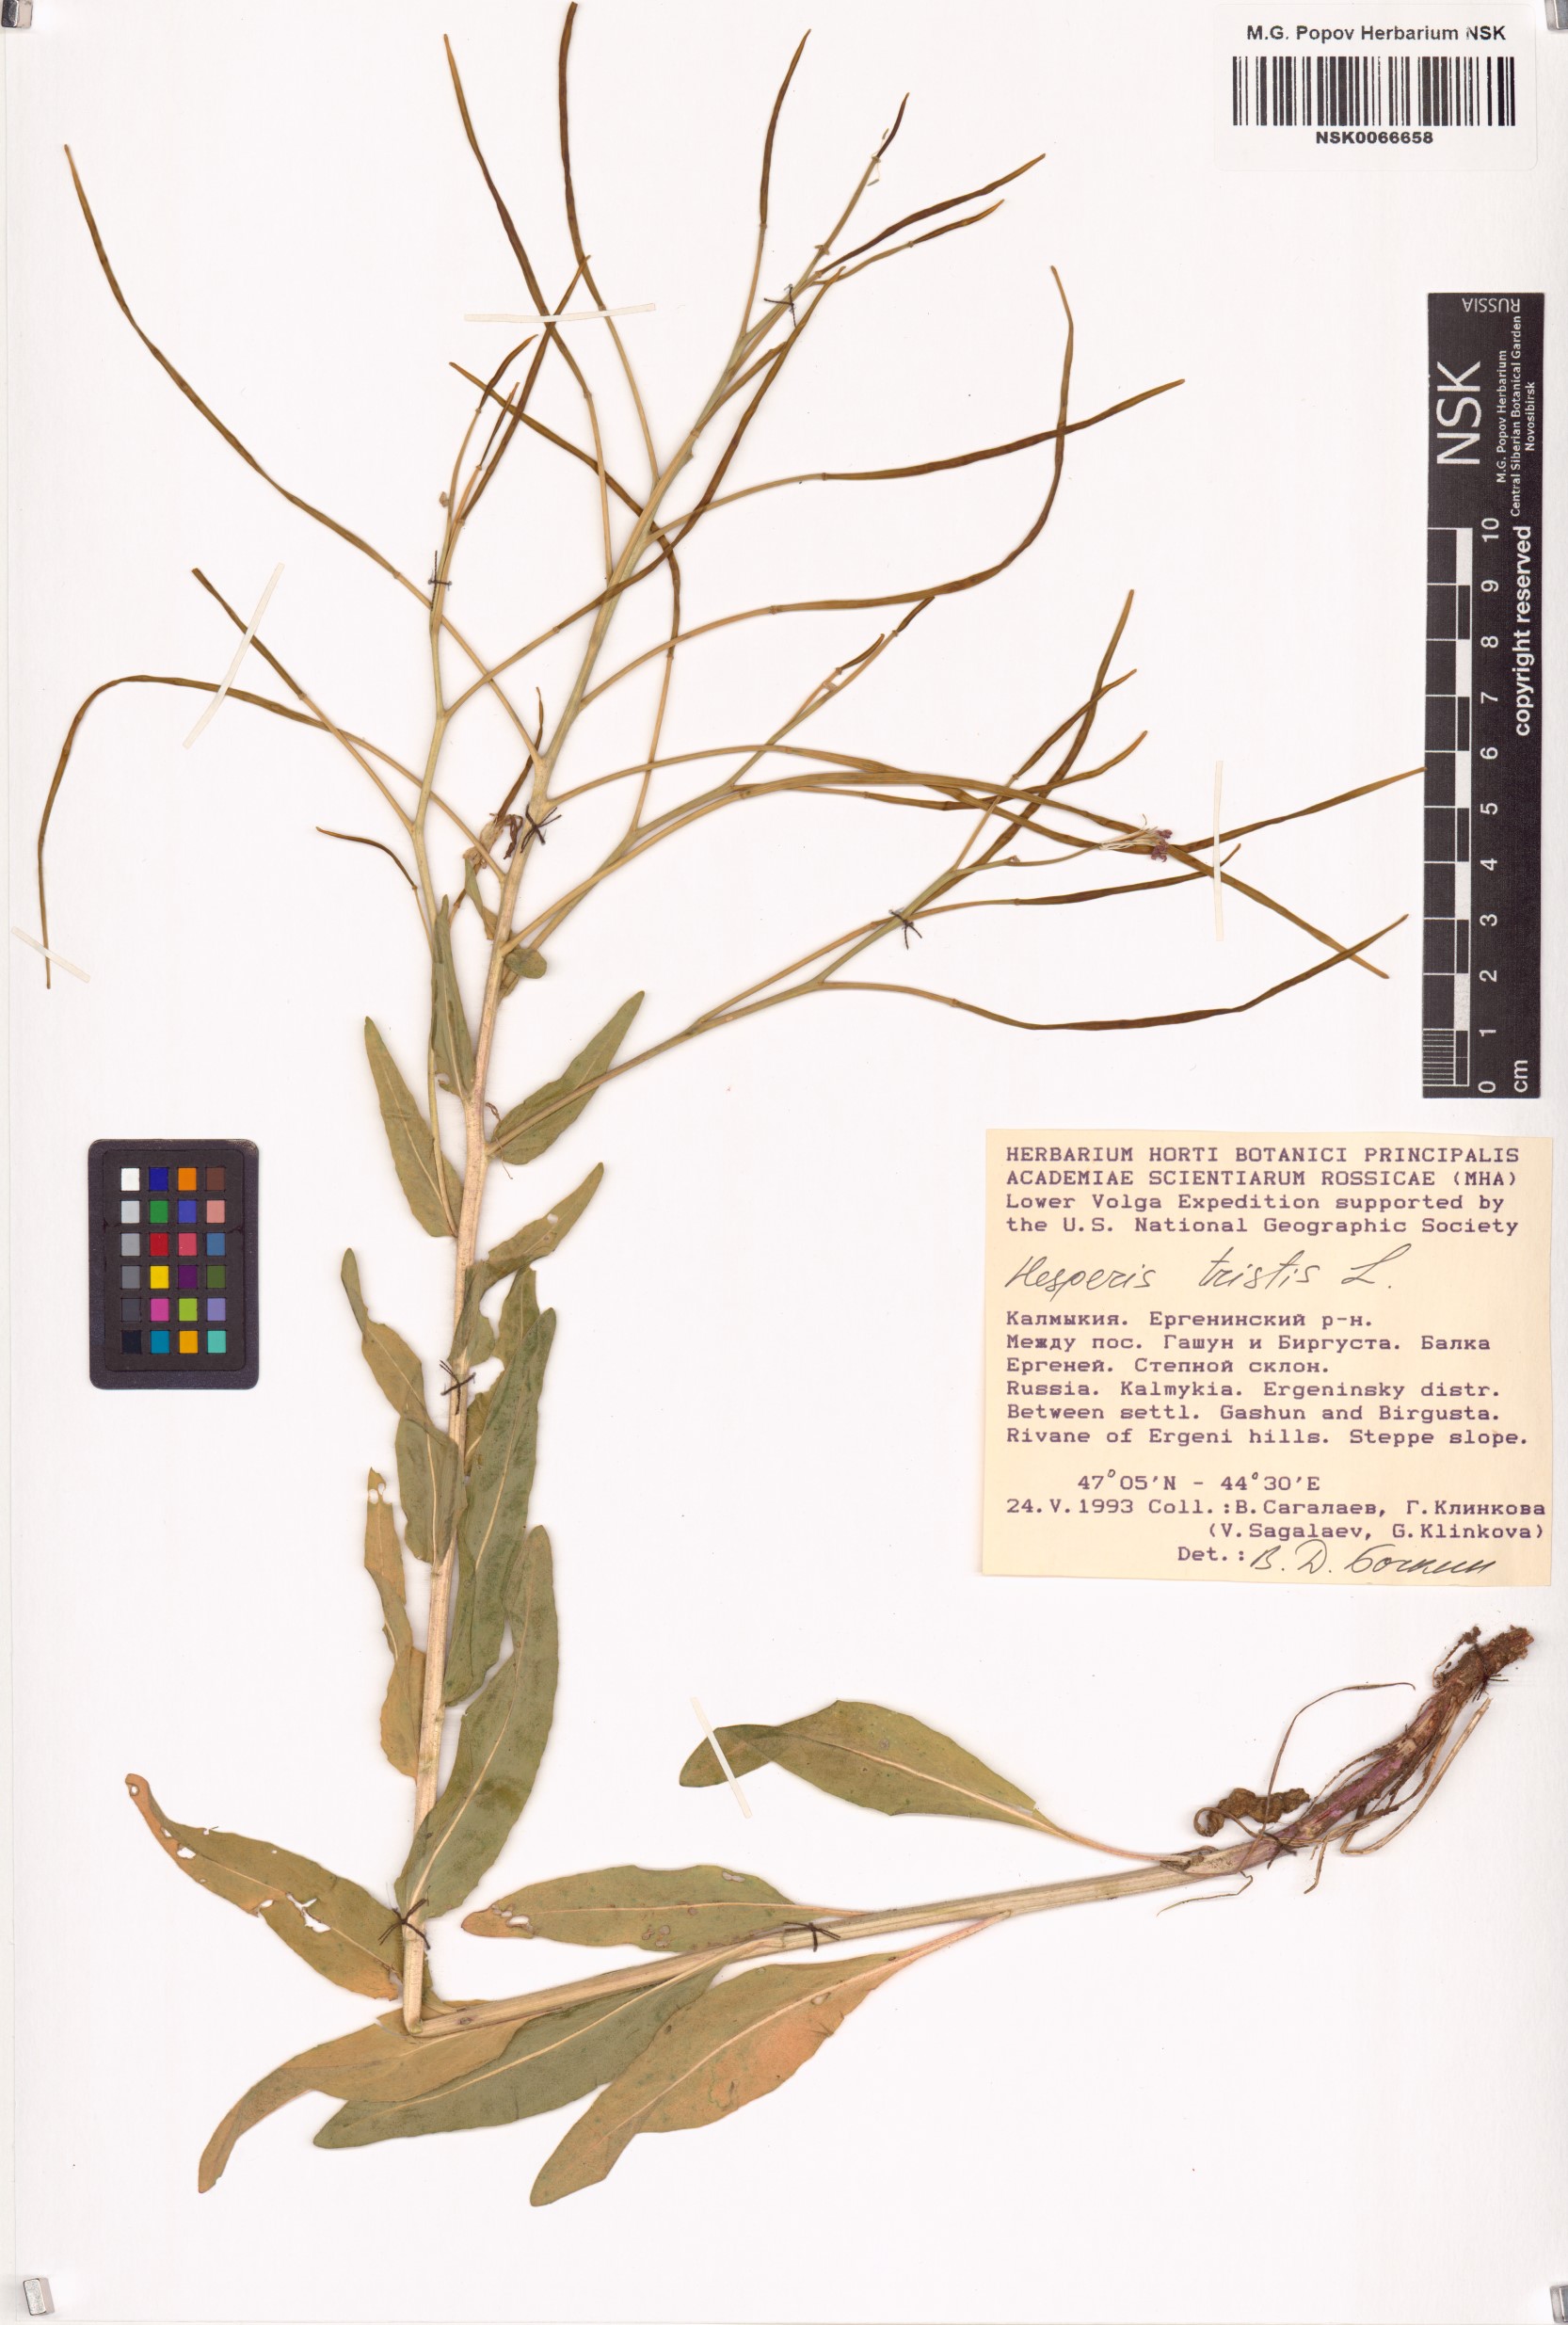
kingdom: Plantae
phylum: Tracheophyta
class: Magnoliopsida
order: Brassicales
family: Brassicaceae
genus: Hesperis
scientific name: Hesperis tristis
